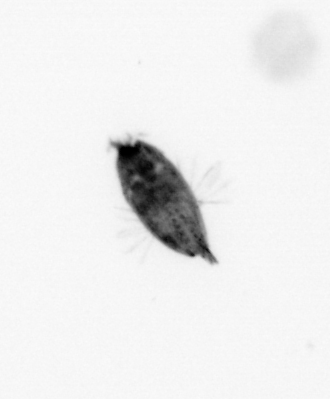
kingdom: Animalia
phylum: Arthropoda
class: Maxillopoda
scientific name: Maxillopoda
